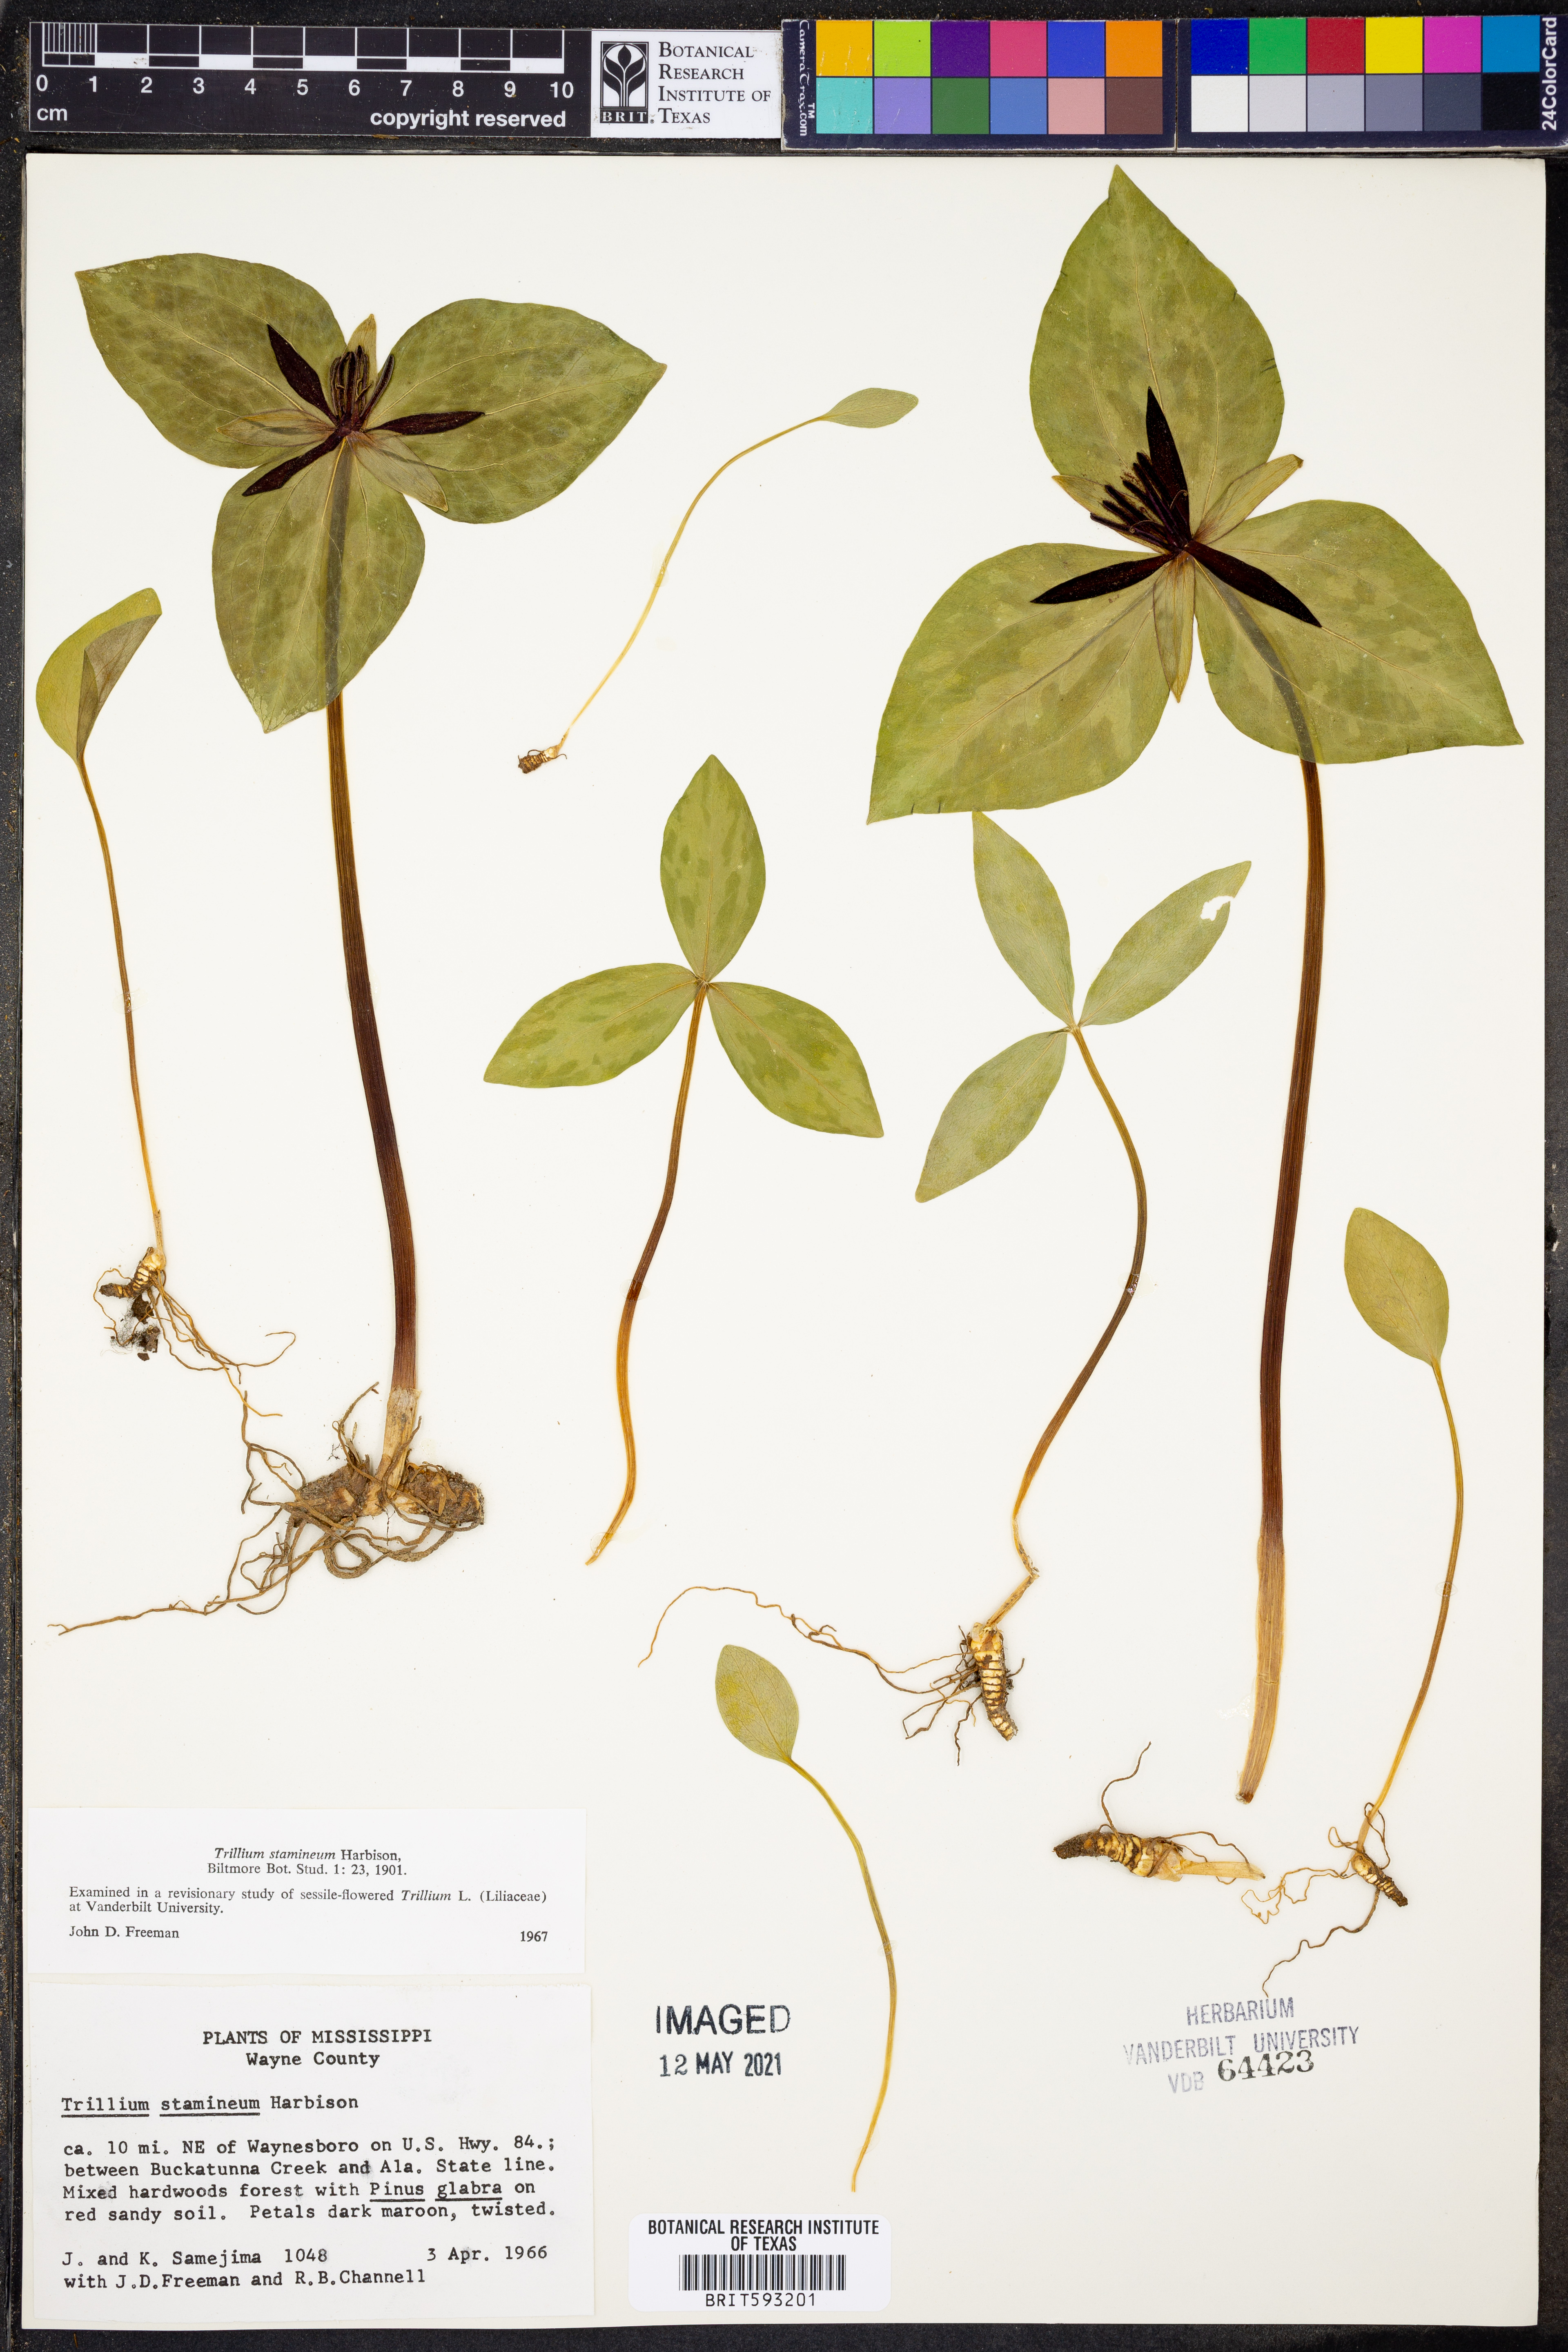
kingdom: Plantae
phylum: Tracheophyta
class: Liliopsida
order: Liliales
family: Melanthiaceae
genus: Trillium
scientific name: Trillium stamineum
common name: Blue ridge wakerobin
